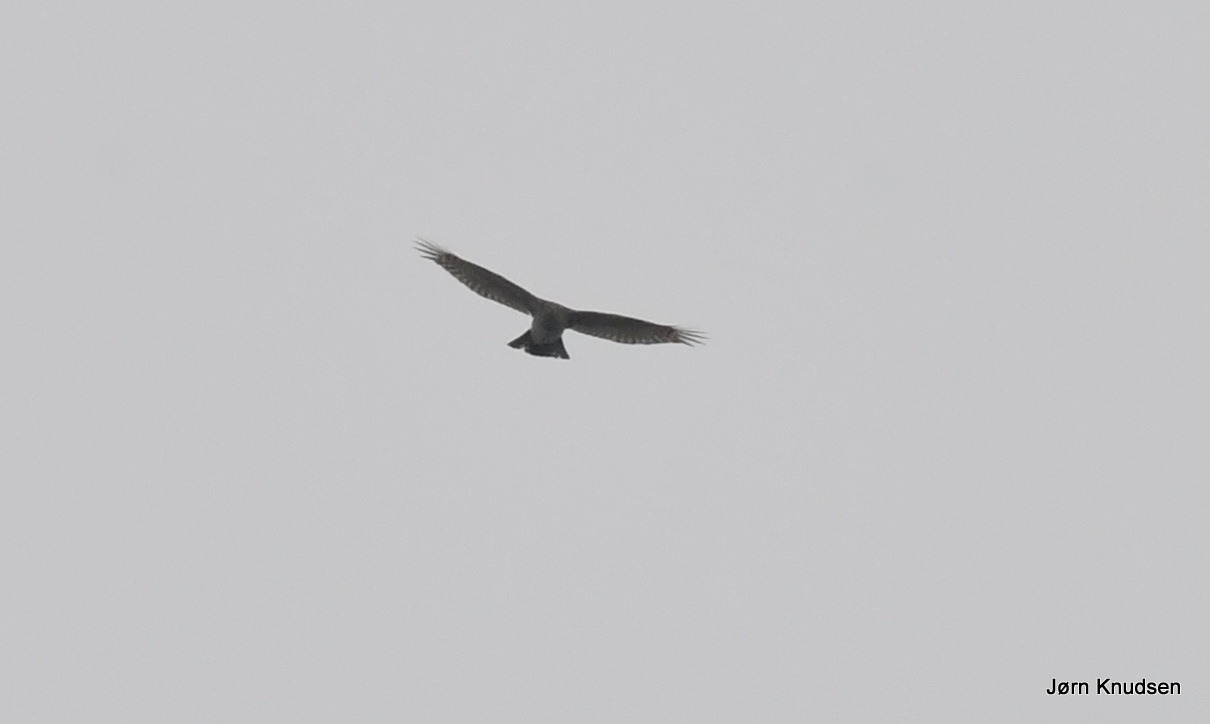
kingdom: Animalia
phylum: Chordata
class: Aves
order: Accipitriformes
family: Accipitridae
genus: Accipiter
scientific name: Accipiter nisus
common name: Spurvehøg
